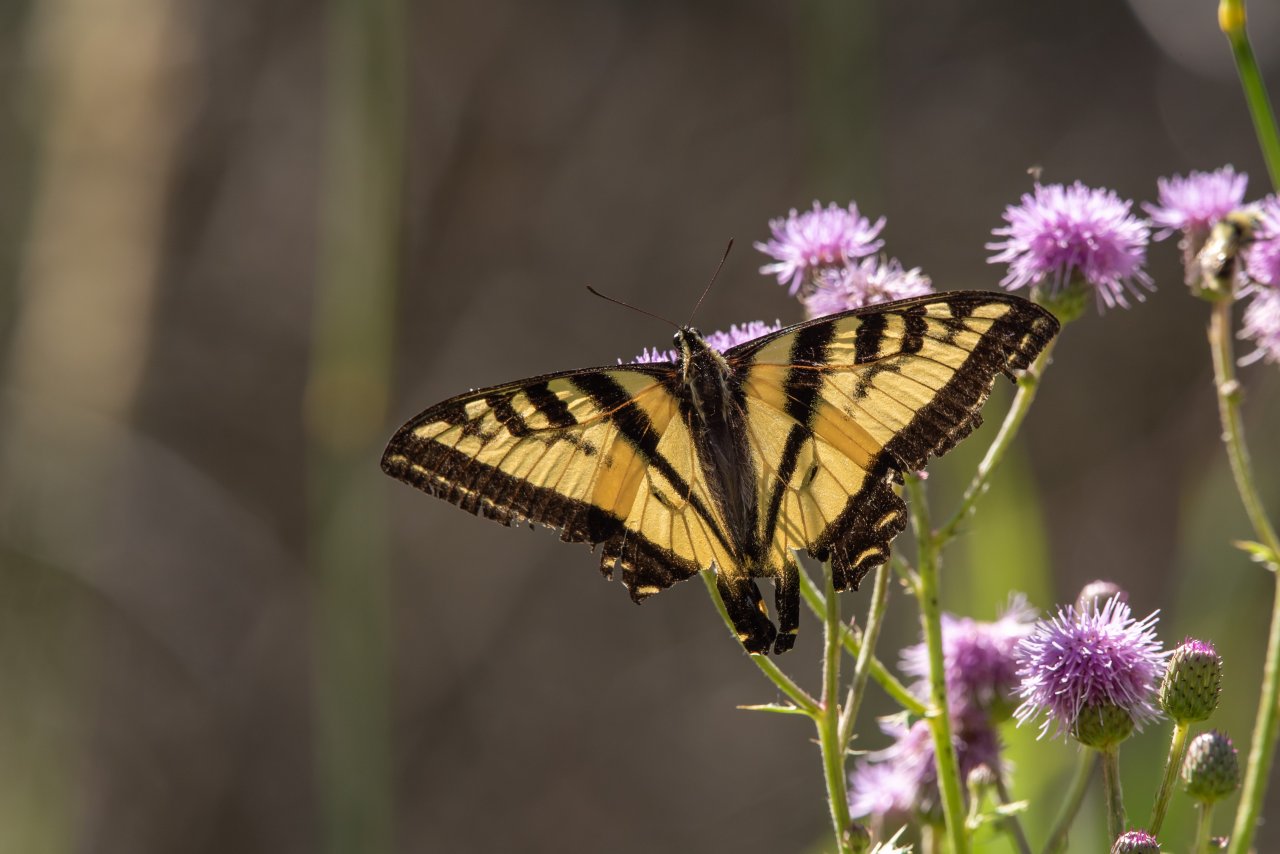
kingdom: Animalia
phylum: Arthropoda
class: Insecta
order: Lepidoptera
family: Papilionidae
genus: Pterourus
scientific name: Pterourus rutulus
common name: Western Tiger Swallowtail
